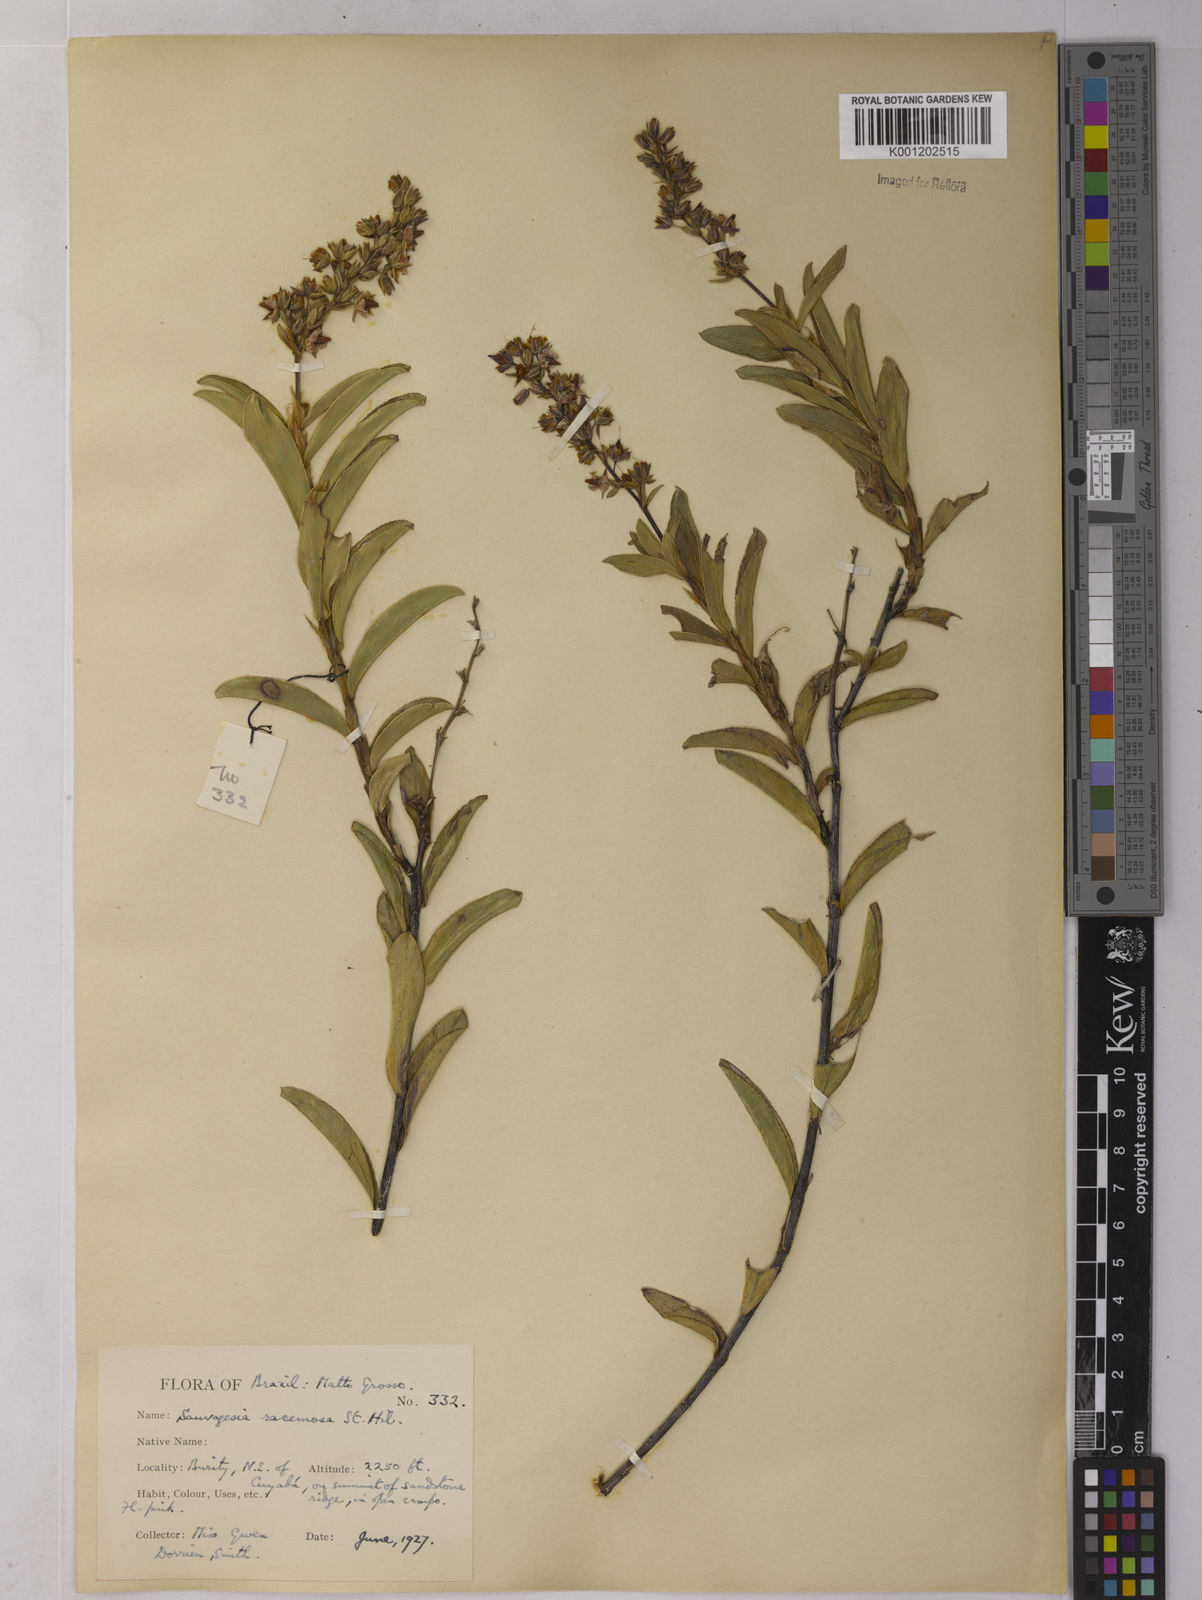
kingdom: Plantae
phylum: Tracheophyta
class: Magnoliopsida
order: Malpighiales
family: Ochnaceae
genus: Sauvagesia
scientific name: Sauvagesia racemosa
